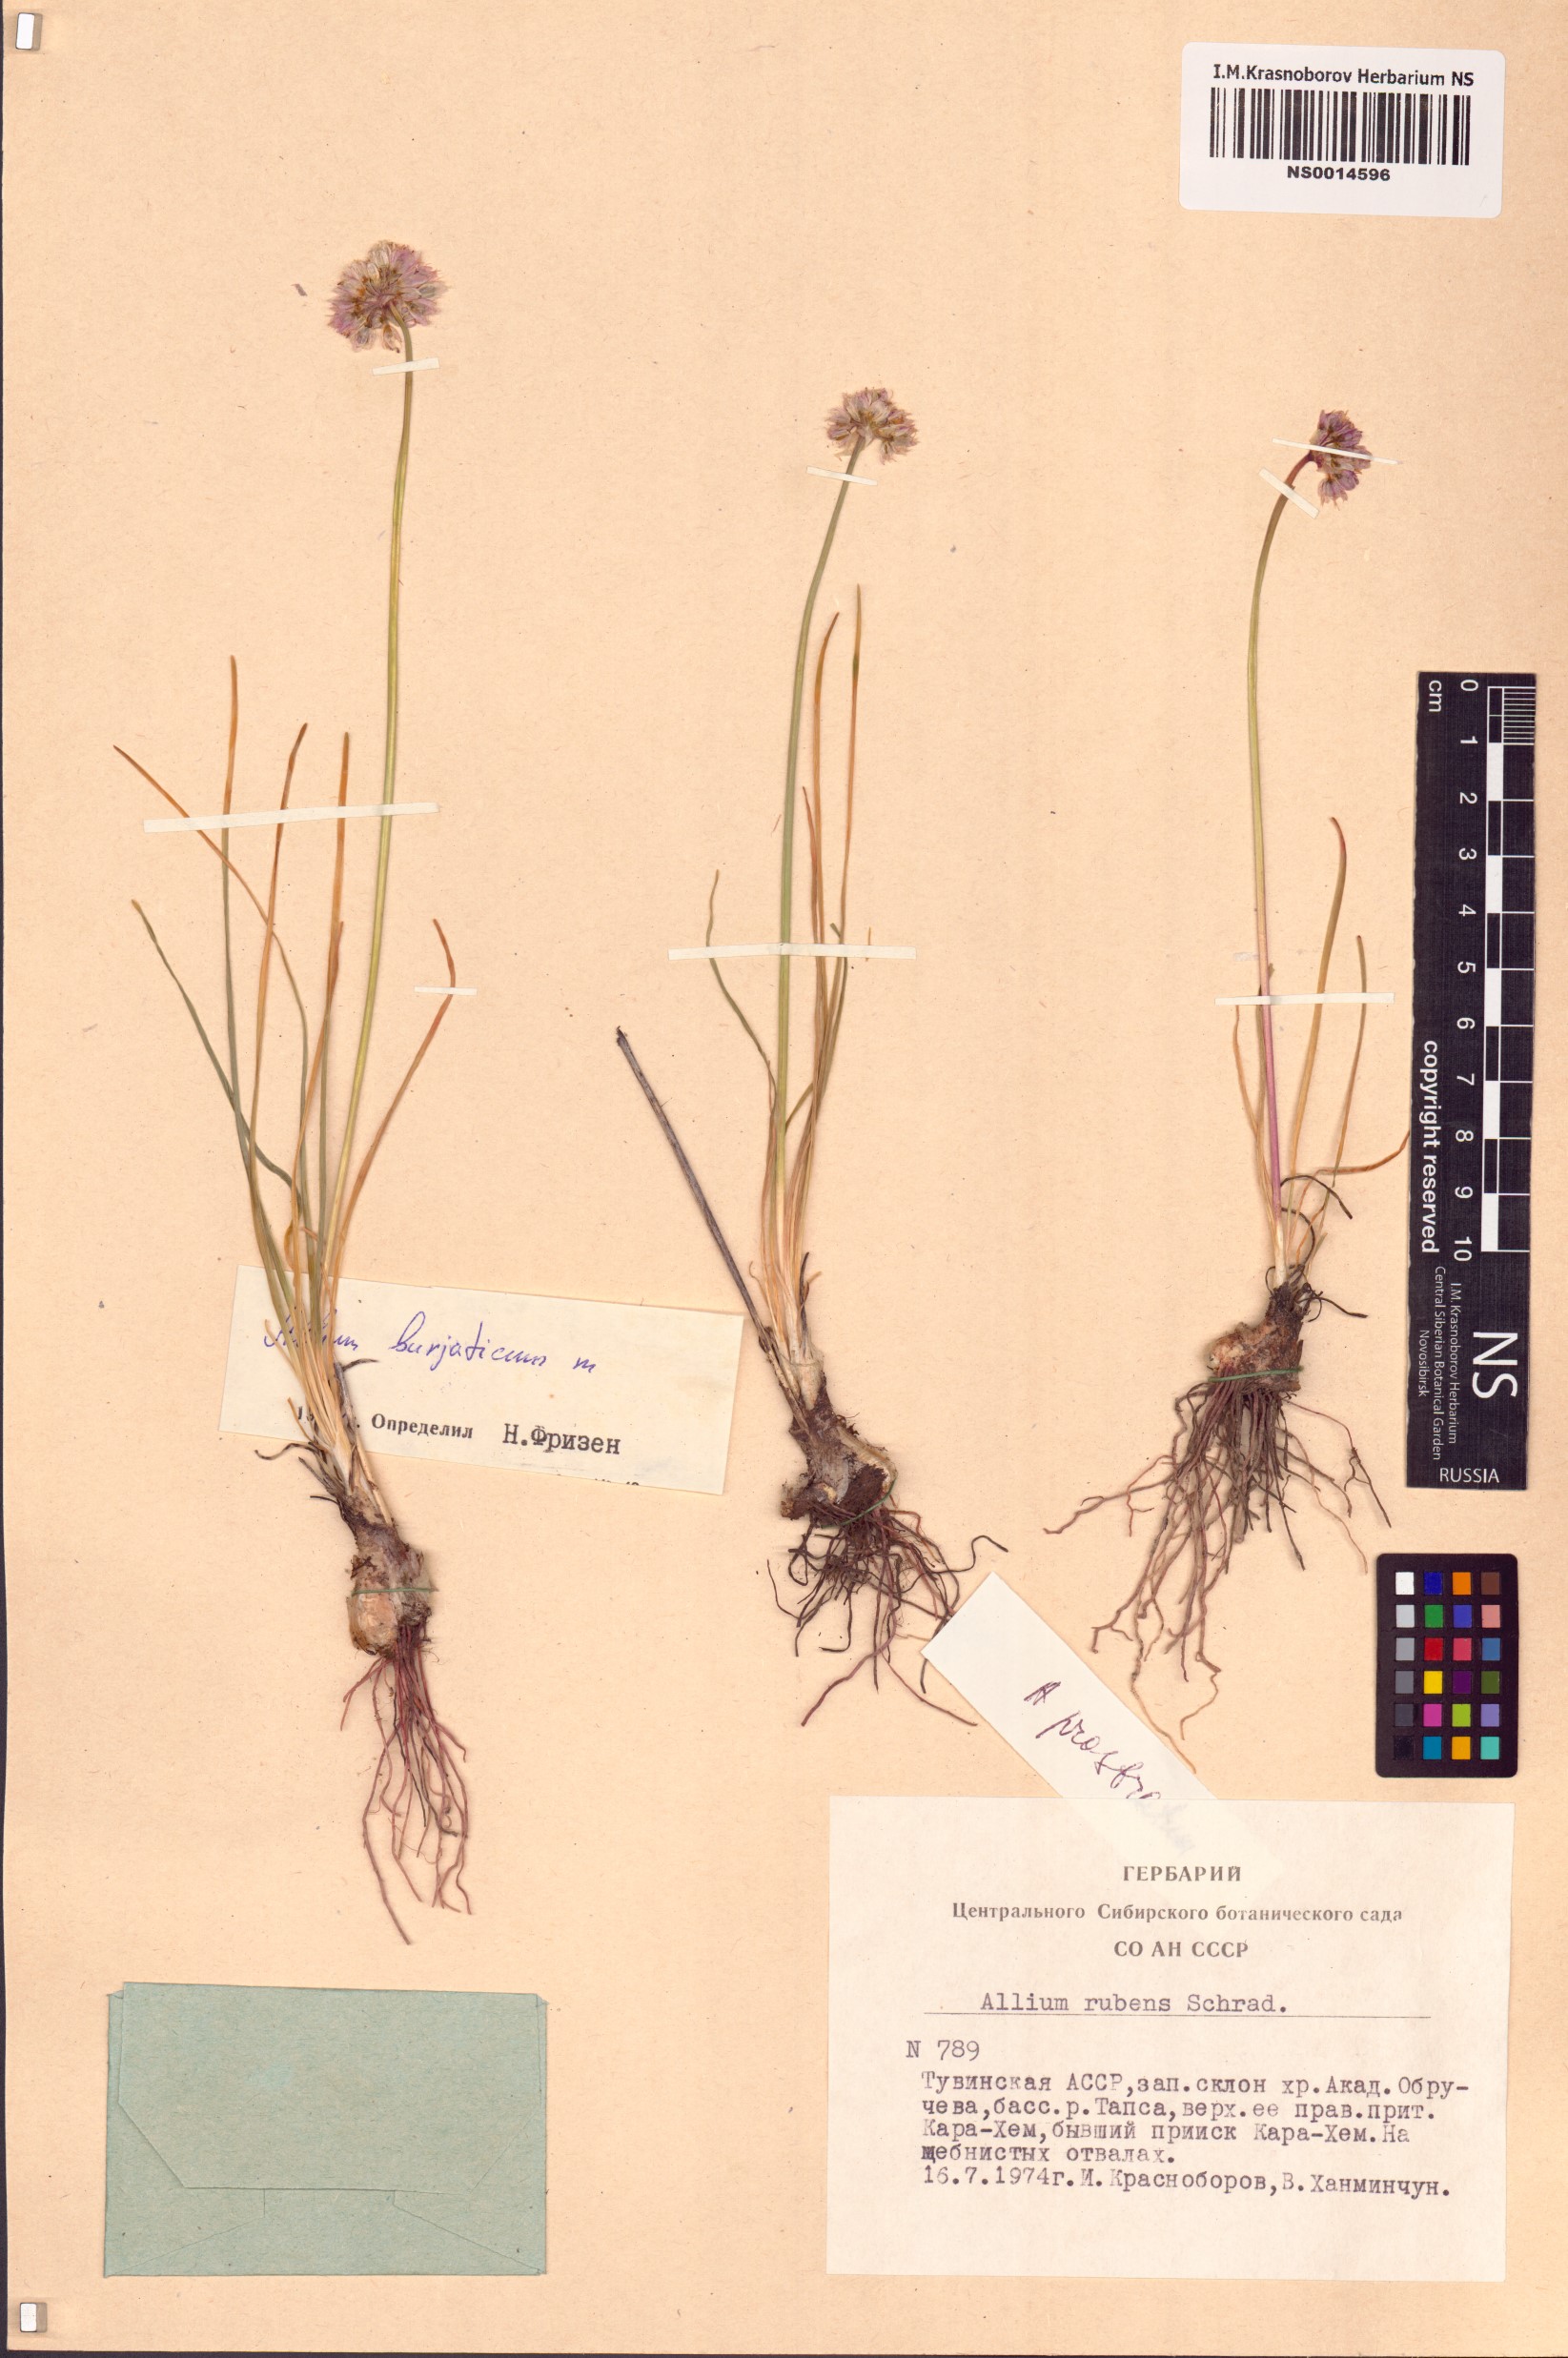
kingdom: Plantae
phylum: Tracheophyta
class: Liliopsida
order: Asparagales
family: Amaryllidaceae
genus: Allium
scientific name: Allium burjaticum
